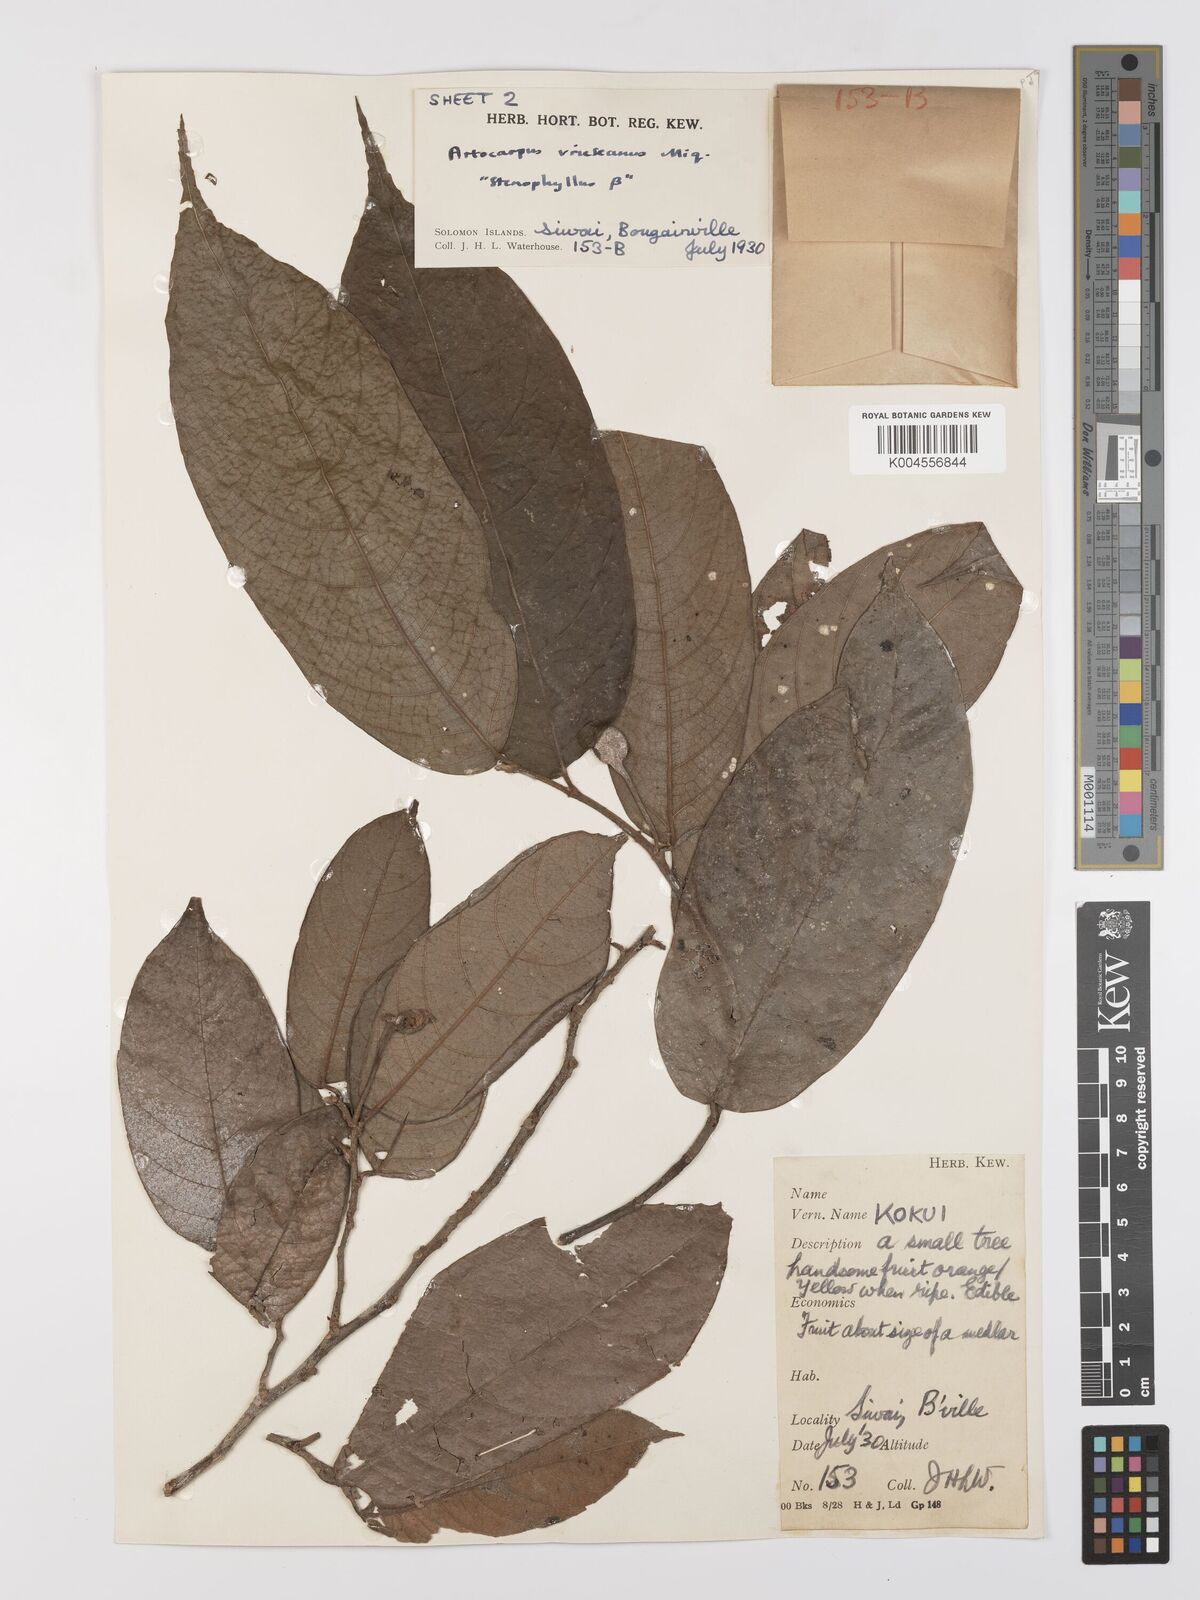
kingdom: Plantae
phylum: Tracheophyta
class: Magnoliopsida
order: Rosales
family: Moraceae
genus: Artocarpus
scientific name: Artocarpus vrieseanus
